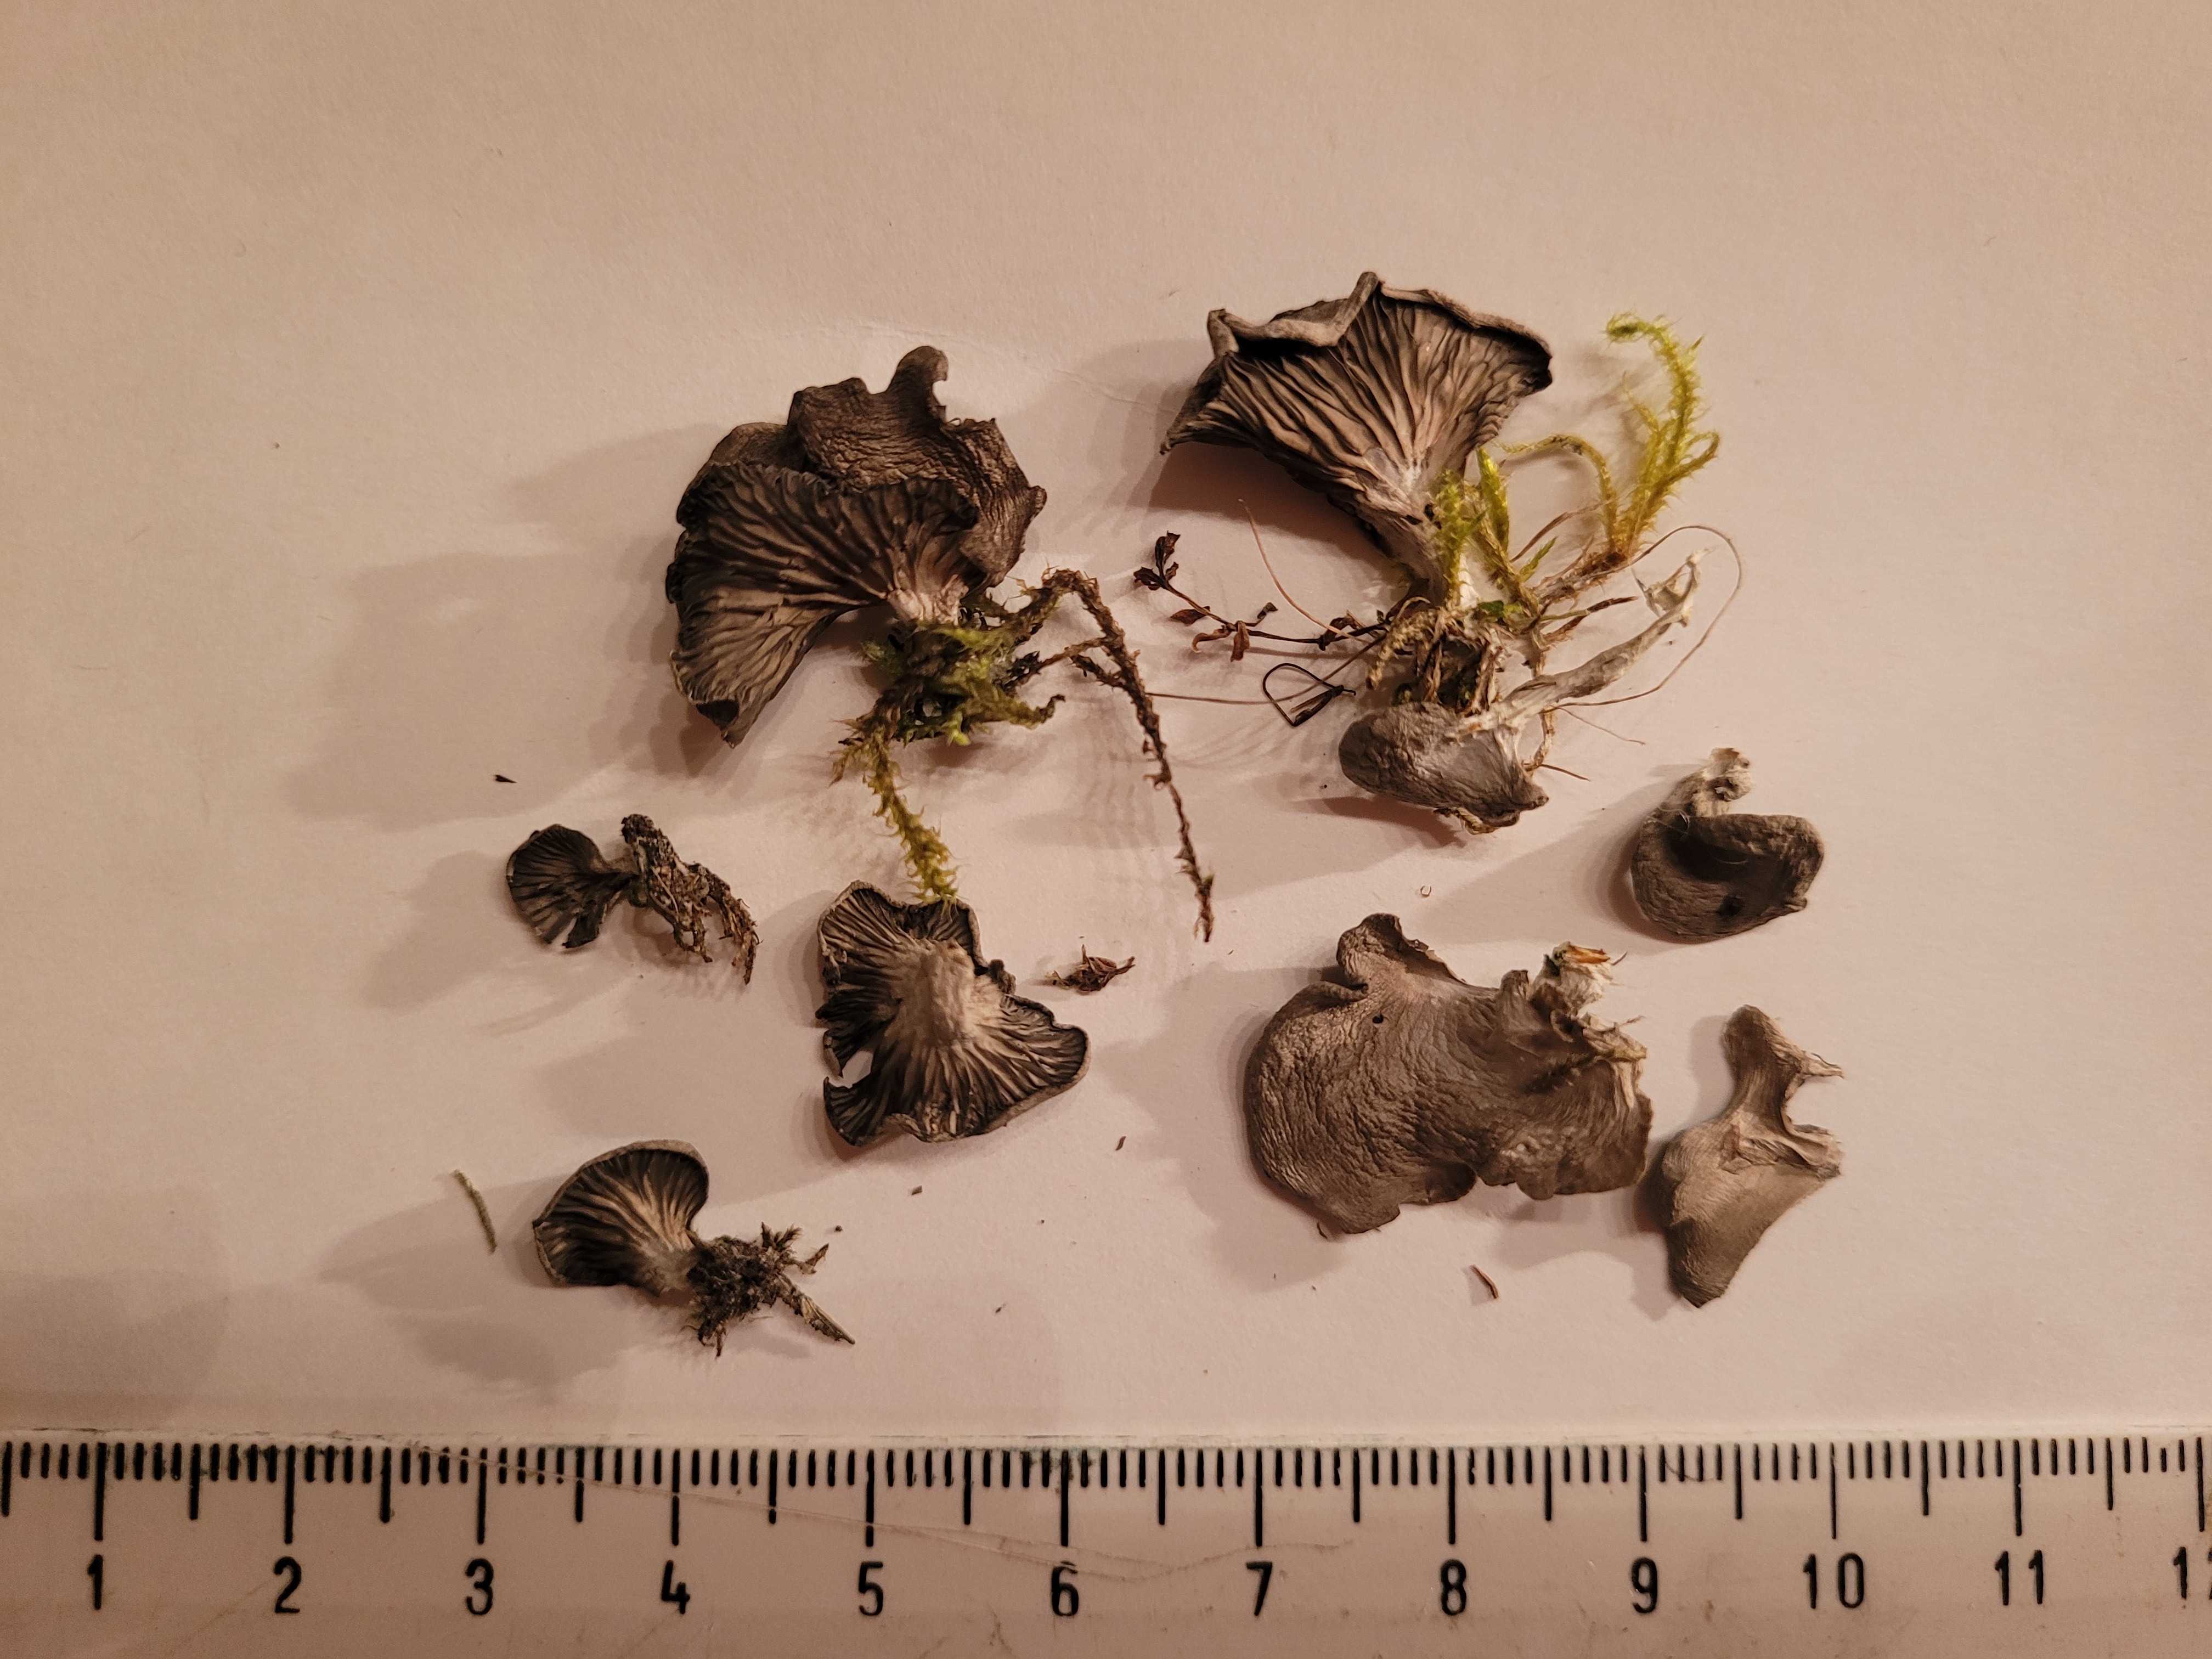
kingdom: Fungi
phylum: Basidiomycota
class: Agaricomycetes
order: Agaricales
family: Hygrophoraceae
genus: Arrhenia
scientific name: Arrhenia
